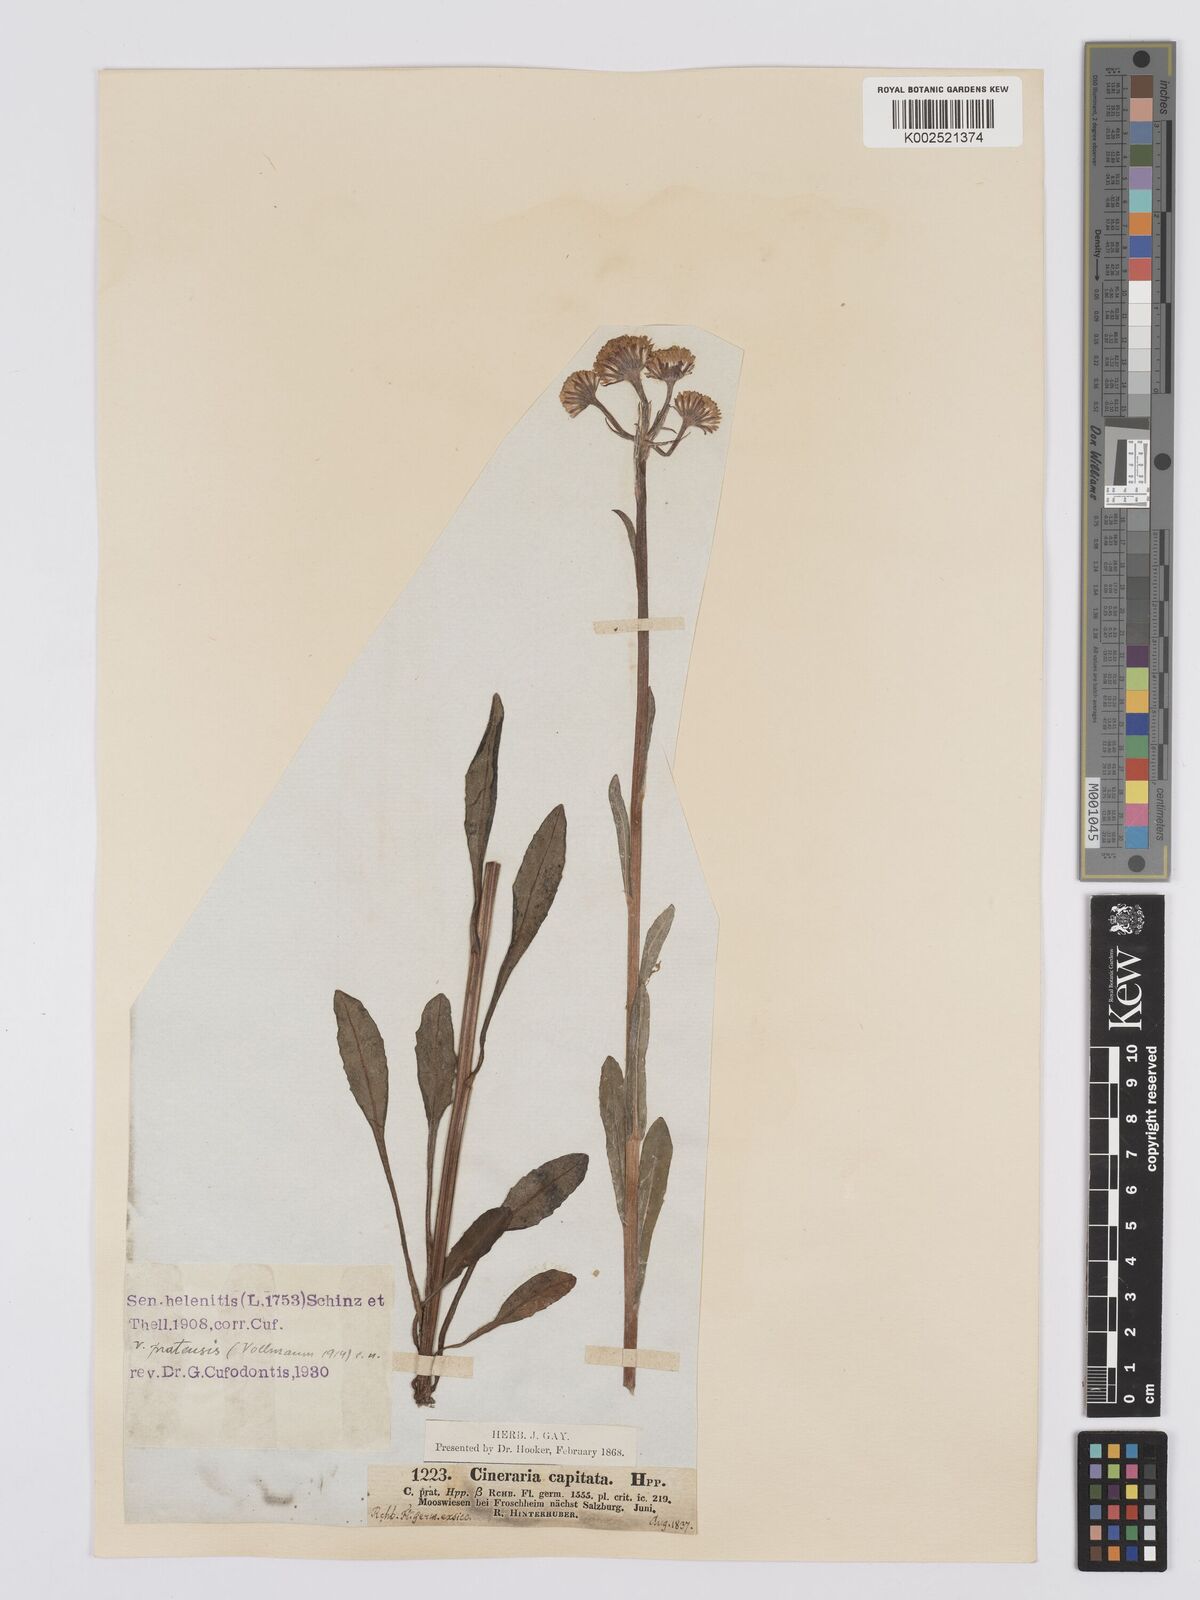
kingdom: Plantae
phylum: Tracheophyta
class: Magnoliopsida
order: Asterales
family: Asteraceae
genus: Tephroseris
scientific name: Tephroseris helenitis
